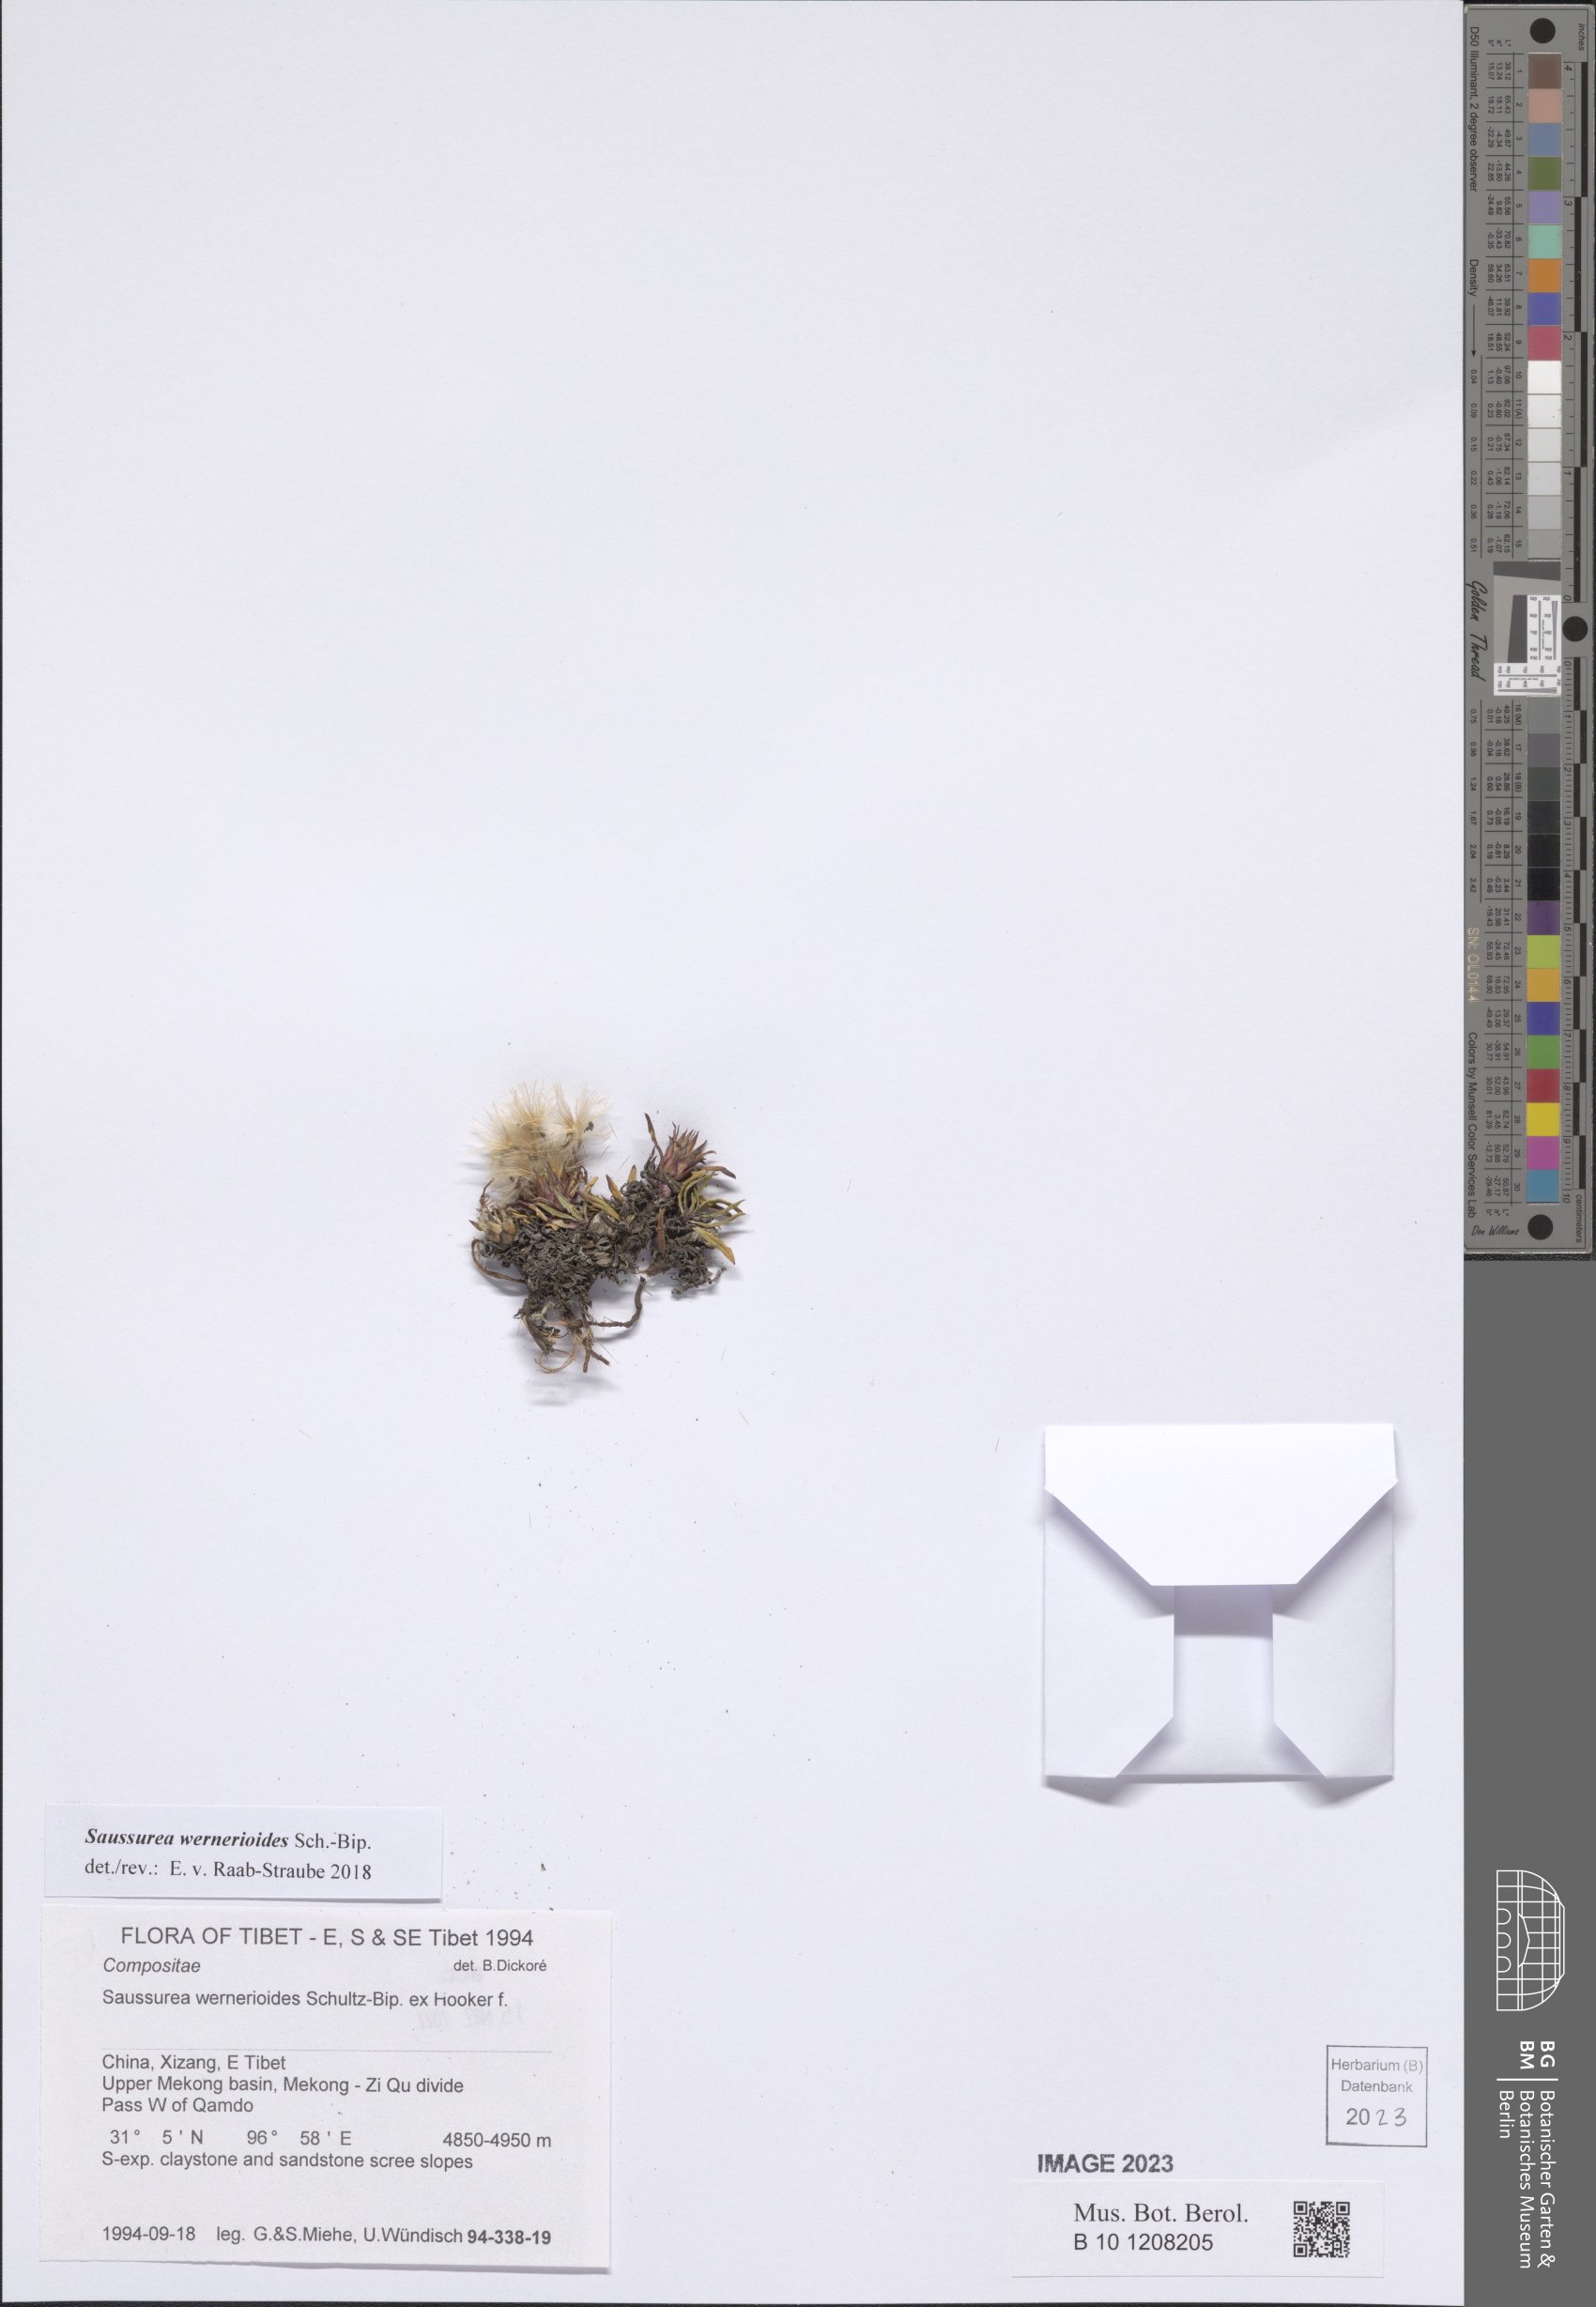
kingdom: Plantae
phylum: Tracheophyta
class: Magnoliopsida
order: Asterales
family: Asteraceae
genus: Saussurea
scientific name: Saussurea wernerioides
